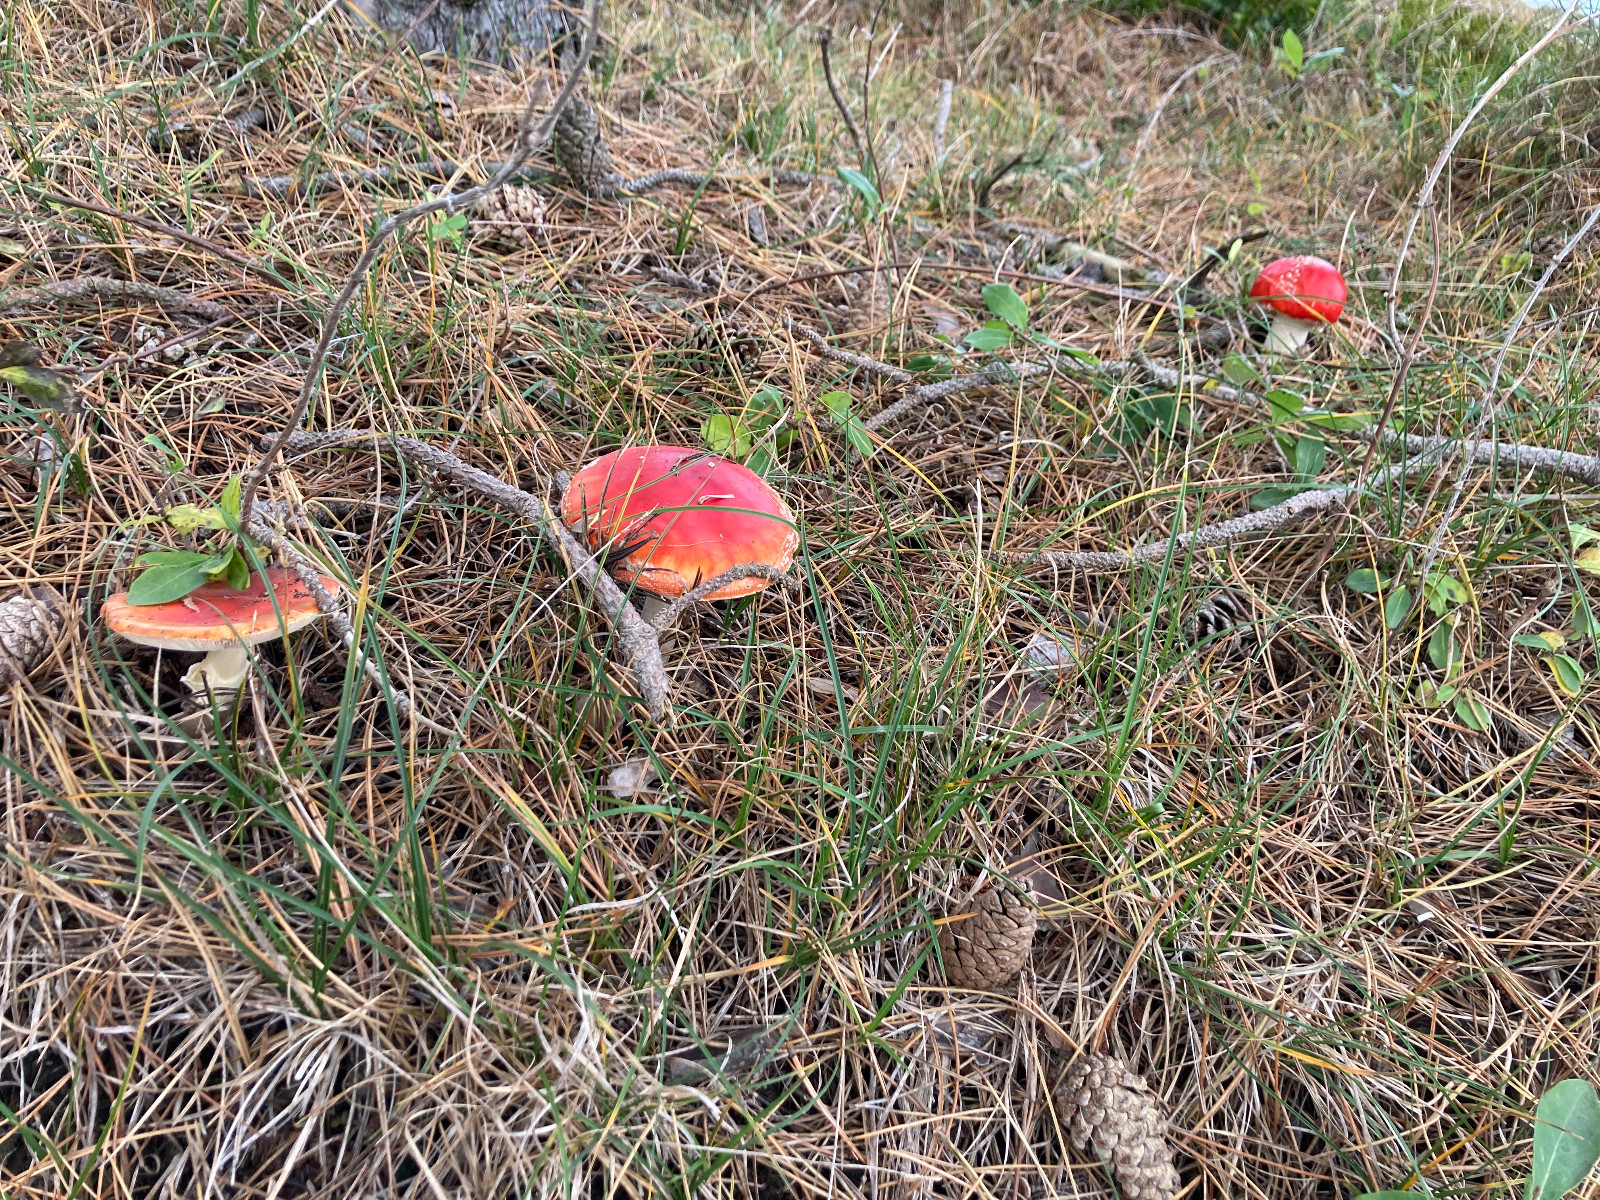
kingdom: Fungi
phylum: Basidiomycota
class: Agaricomycetes
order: Agaricales
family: Amanitaceae
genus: Amanita
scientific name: Amanita muscaria
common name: rød fluesvamp
